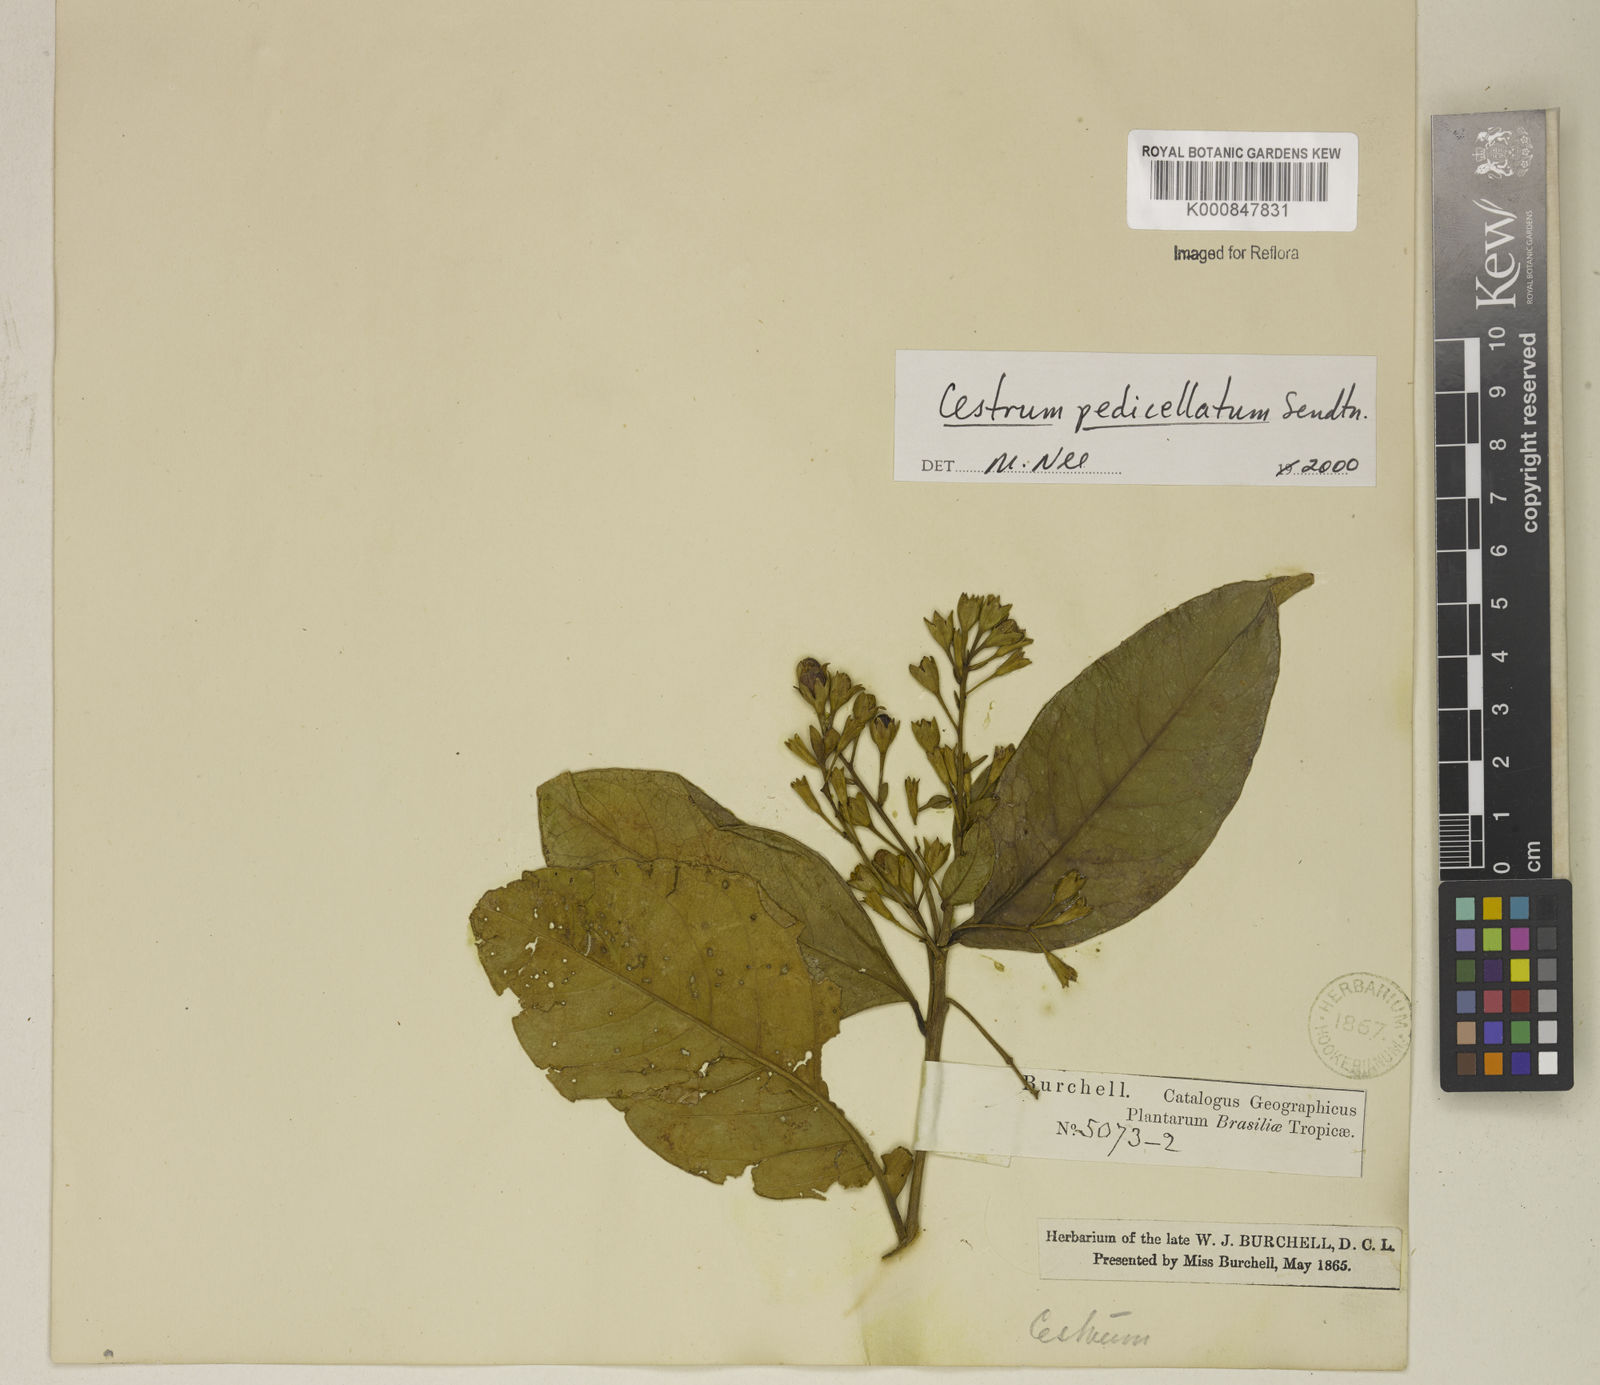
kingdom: Plantae
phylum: Tracheophyta
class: Magnoliopsida
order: Solanales
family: Solanaceae
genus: Cestrum
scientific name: Cestrum pedicellatum
